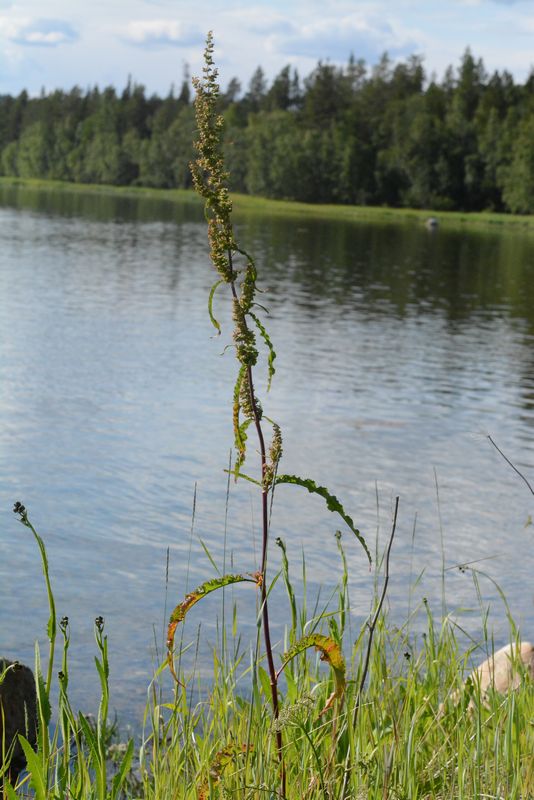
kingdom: Plantae
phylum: Tracheophyta
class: Magnoliopsida
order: Caryophyllales
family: Polygonaceae
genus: Rumex
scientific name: Rumex pseudonatronatus
